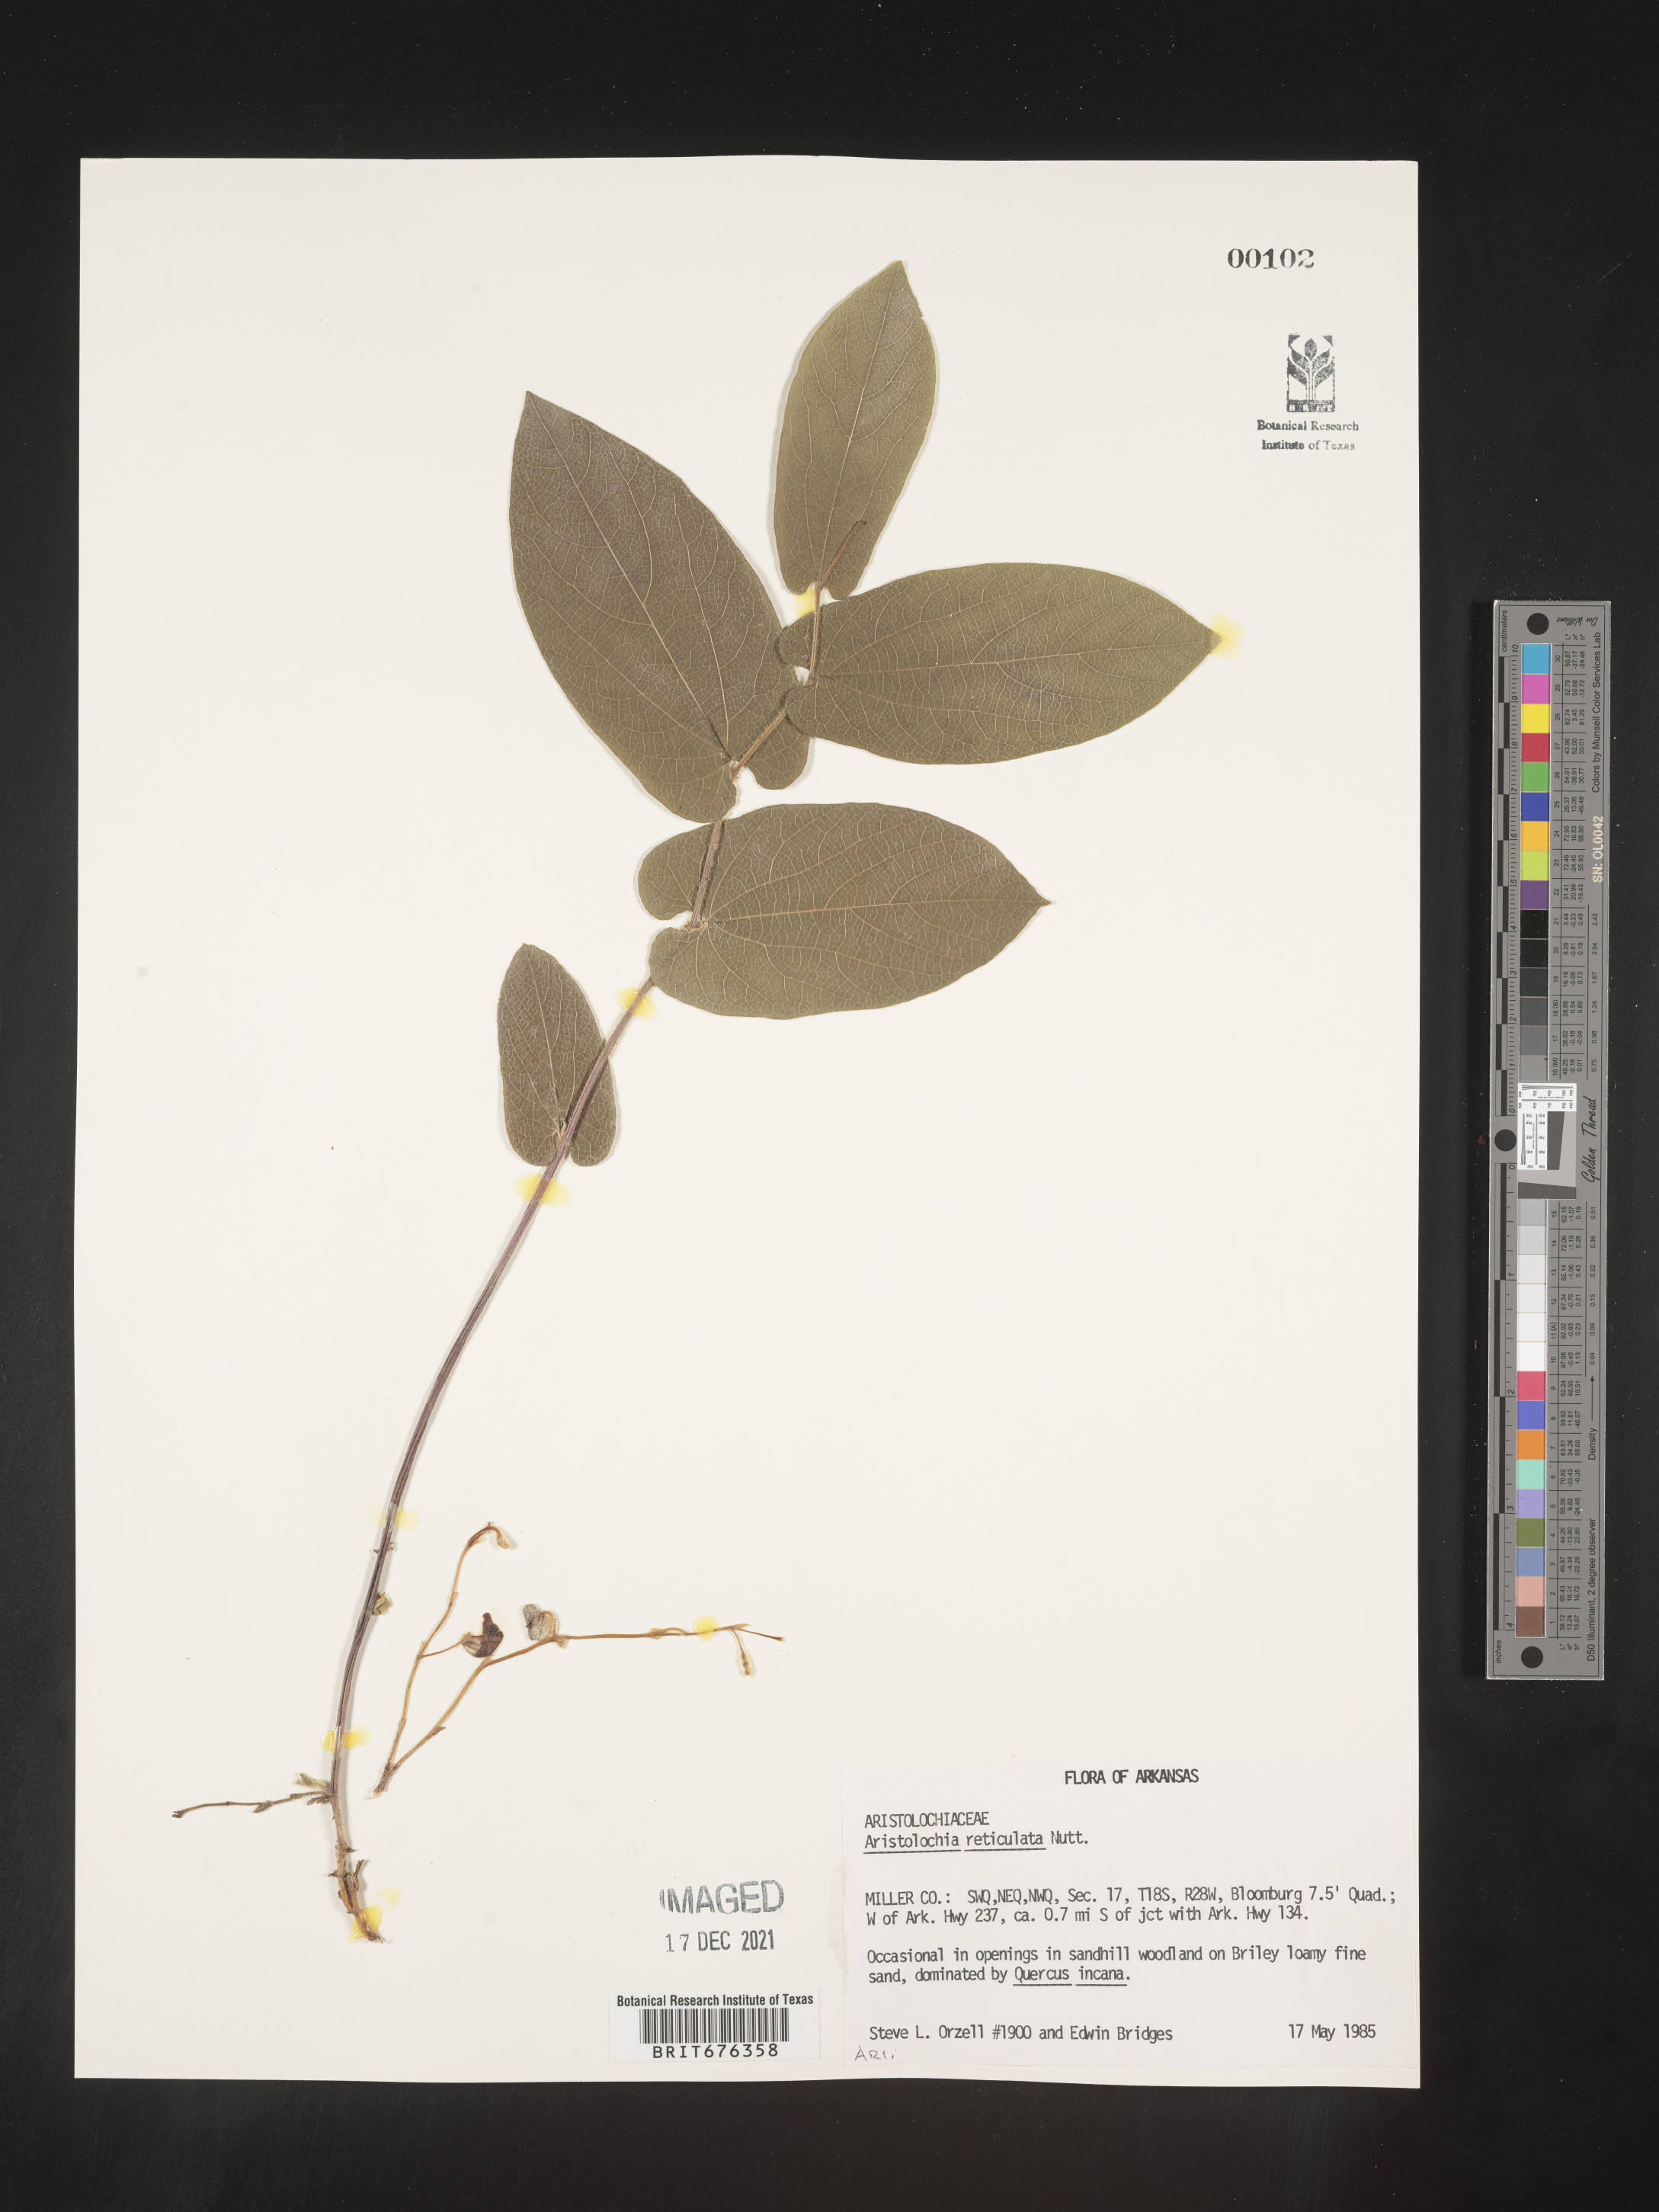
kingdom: Plantae
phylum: Tracheophyta
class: Magnoliopsida
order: Piperales
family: Aristolochiaceae
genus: Aristolochia
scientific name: Aristolochia
